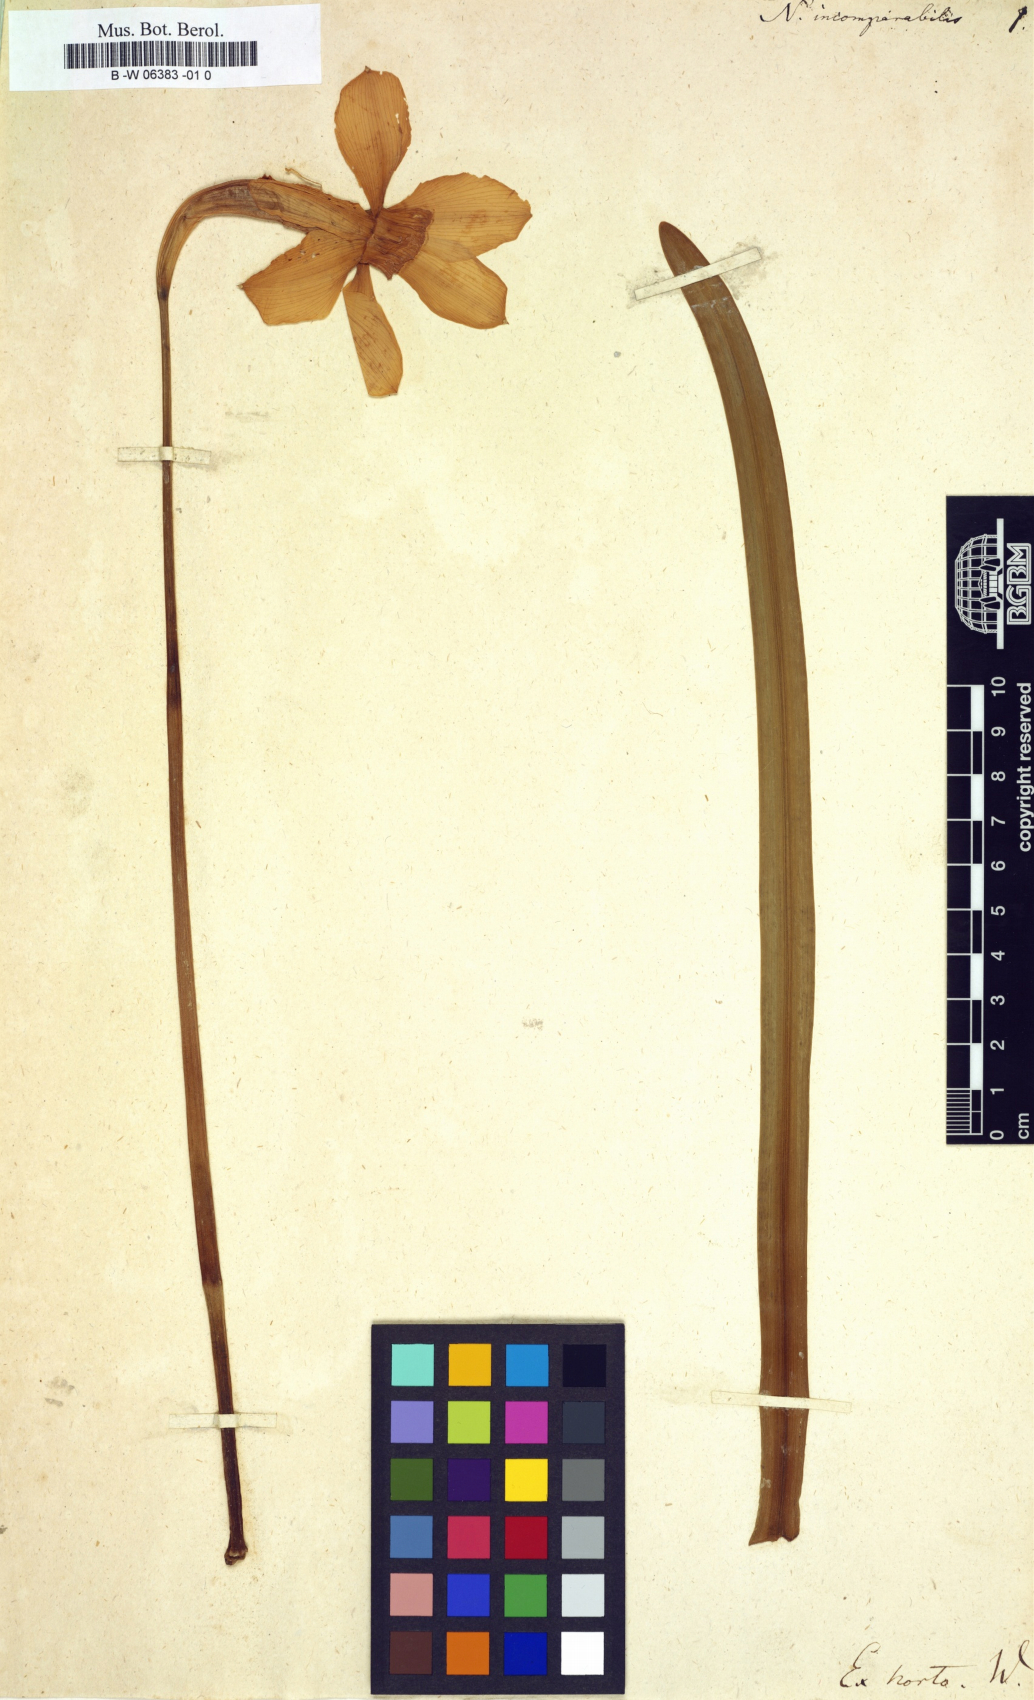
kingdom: Plantae
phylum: Tracheophyta
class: Liliopsida
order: Asparagales
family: Amaryllidaceae
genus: Narcissus
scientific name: Narcissus incomparabilis
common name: Nonesuch daffodil
